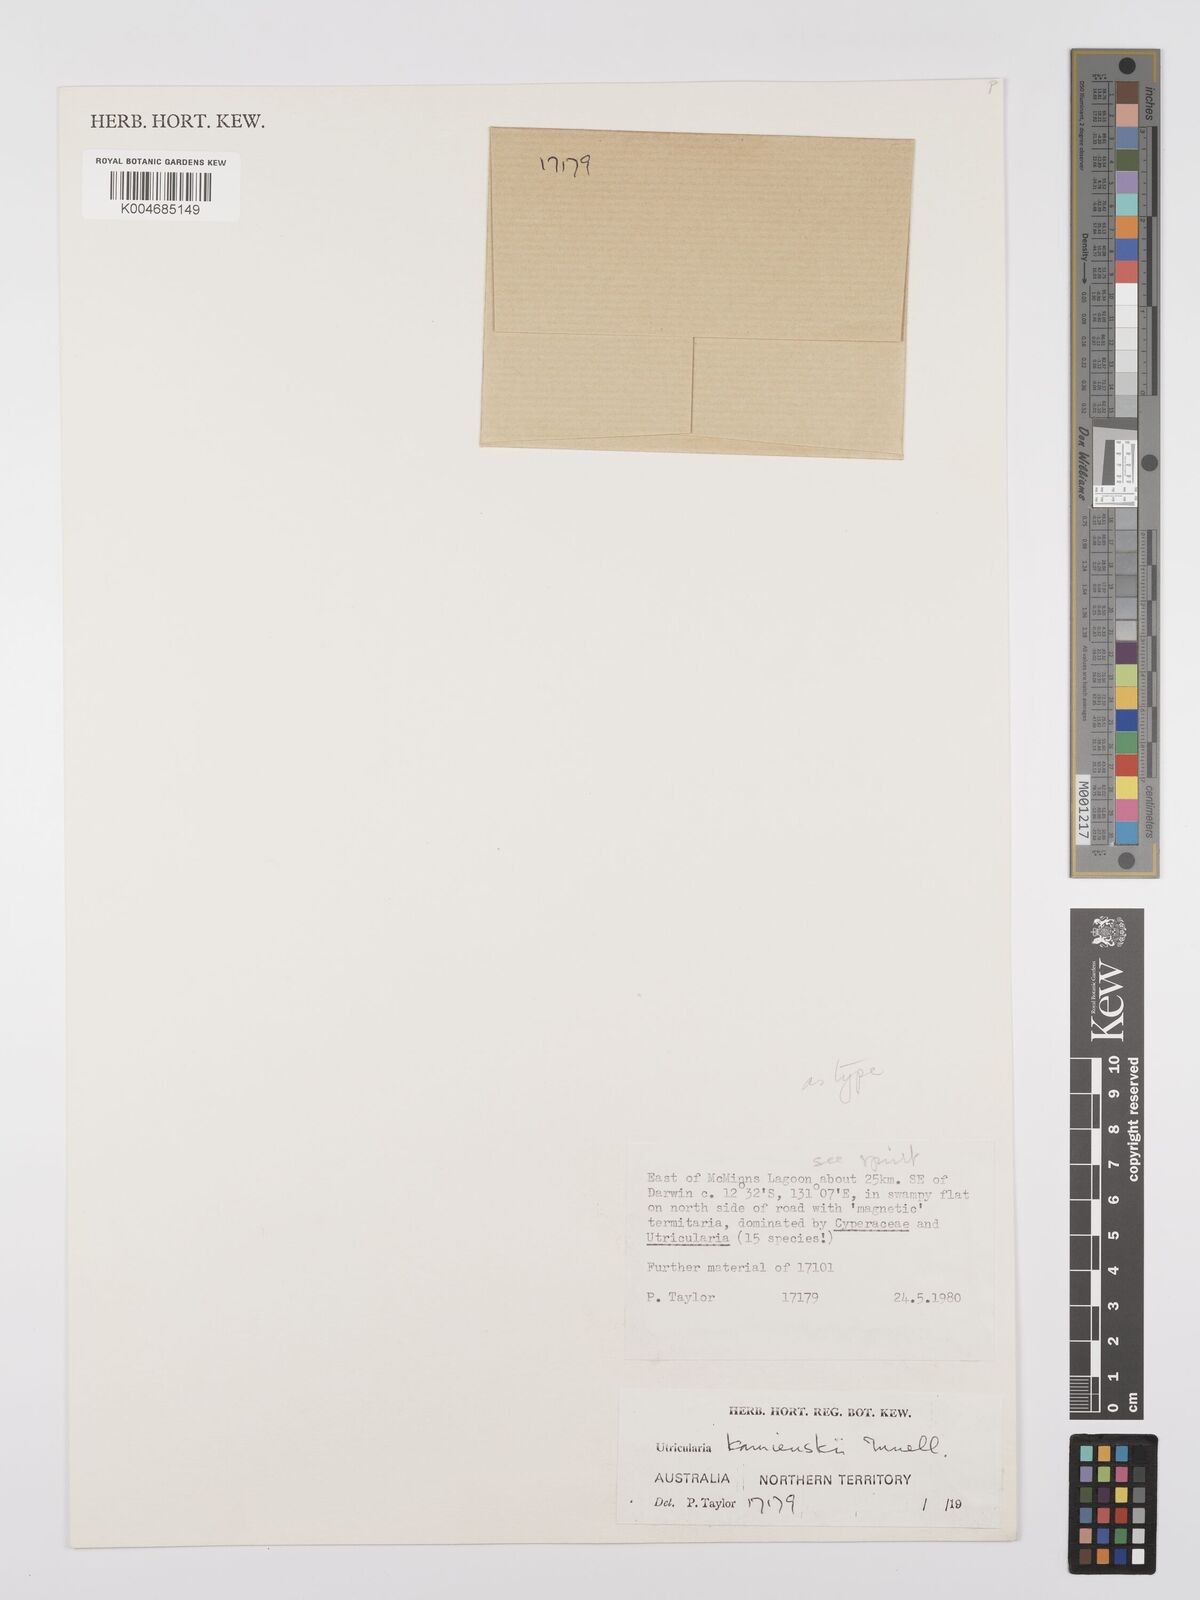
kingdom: Plantae
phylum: Tracheophyta
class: Magnoliopsida
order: Lamiales
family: Lentibulariaceae
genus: Utricularia
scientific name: Utricularia kamienskii
